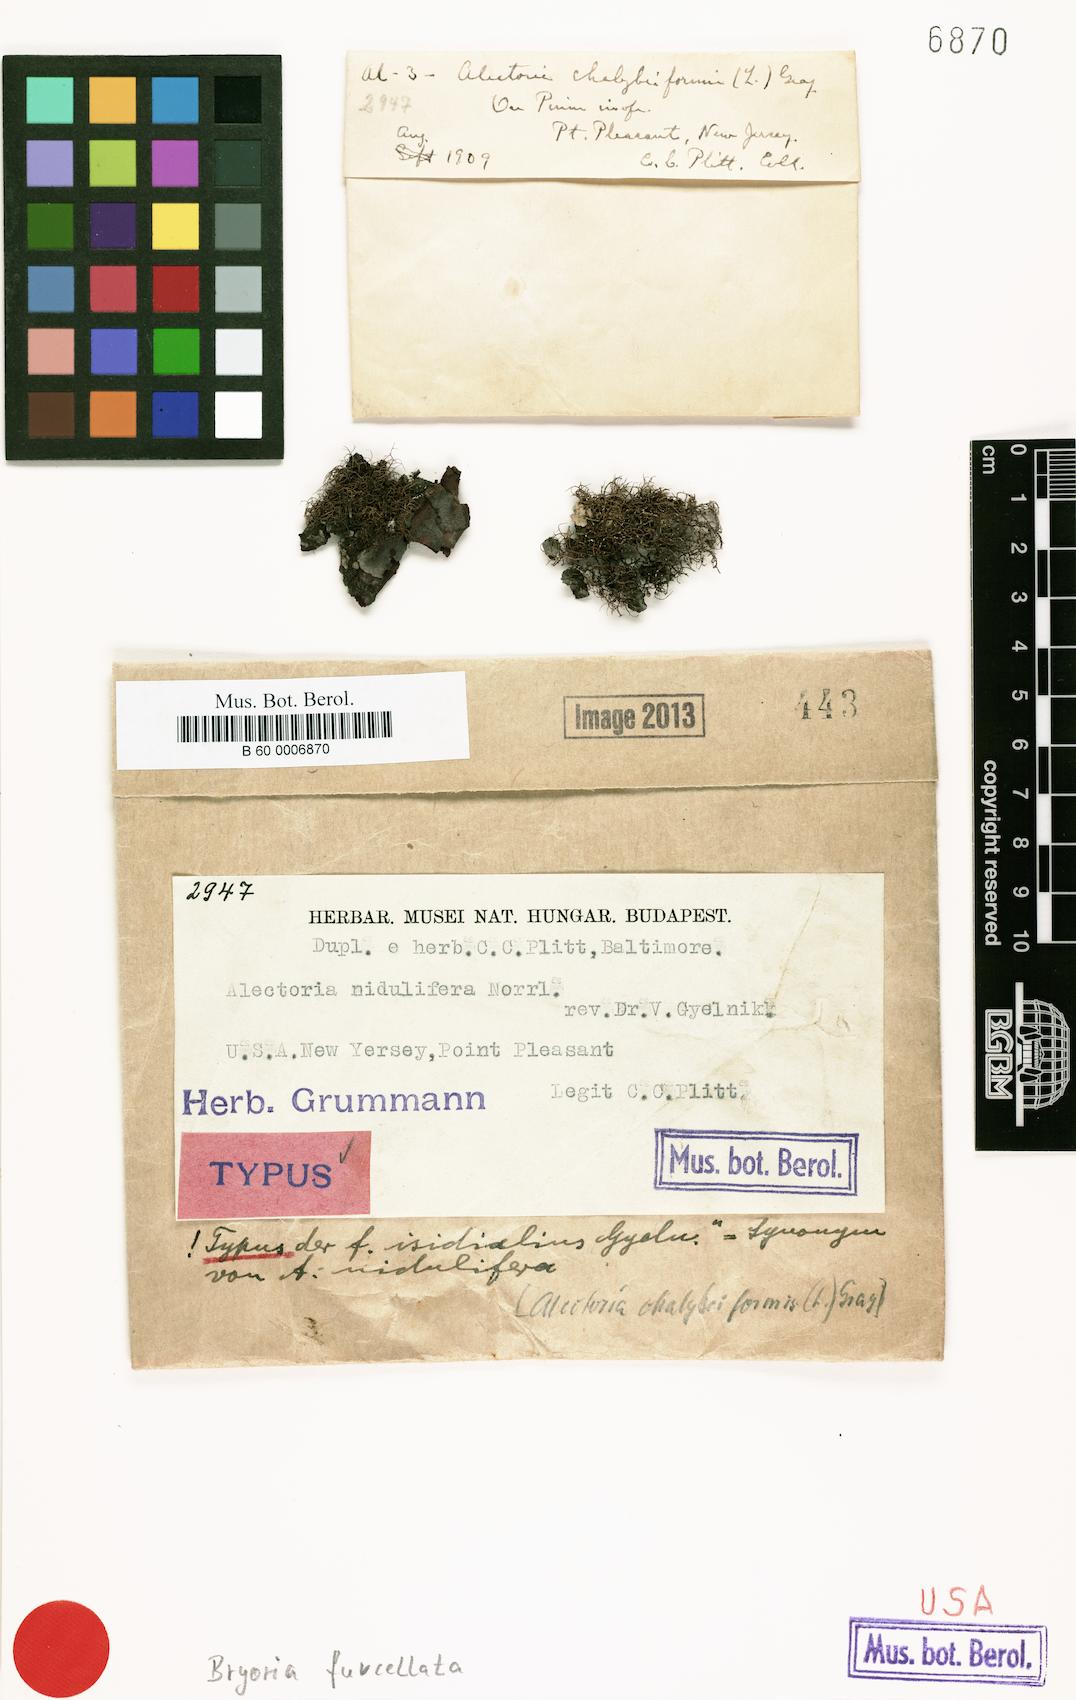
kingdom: Fungi
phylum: Ascomycota
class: Lecanoromycetes
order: Lecanorales
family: Parmeliaceae
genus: Bryoria
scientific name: Bryoria furcellata
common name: Forked hair-lichen
